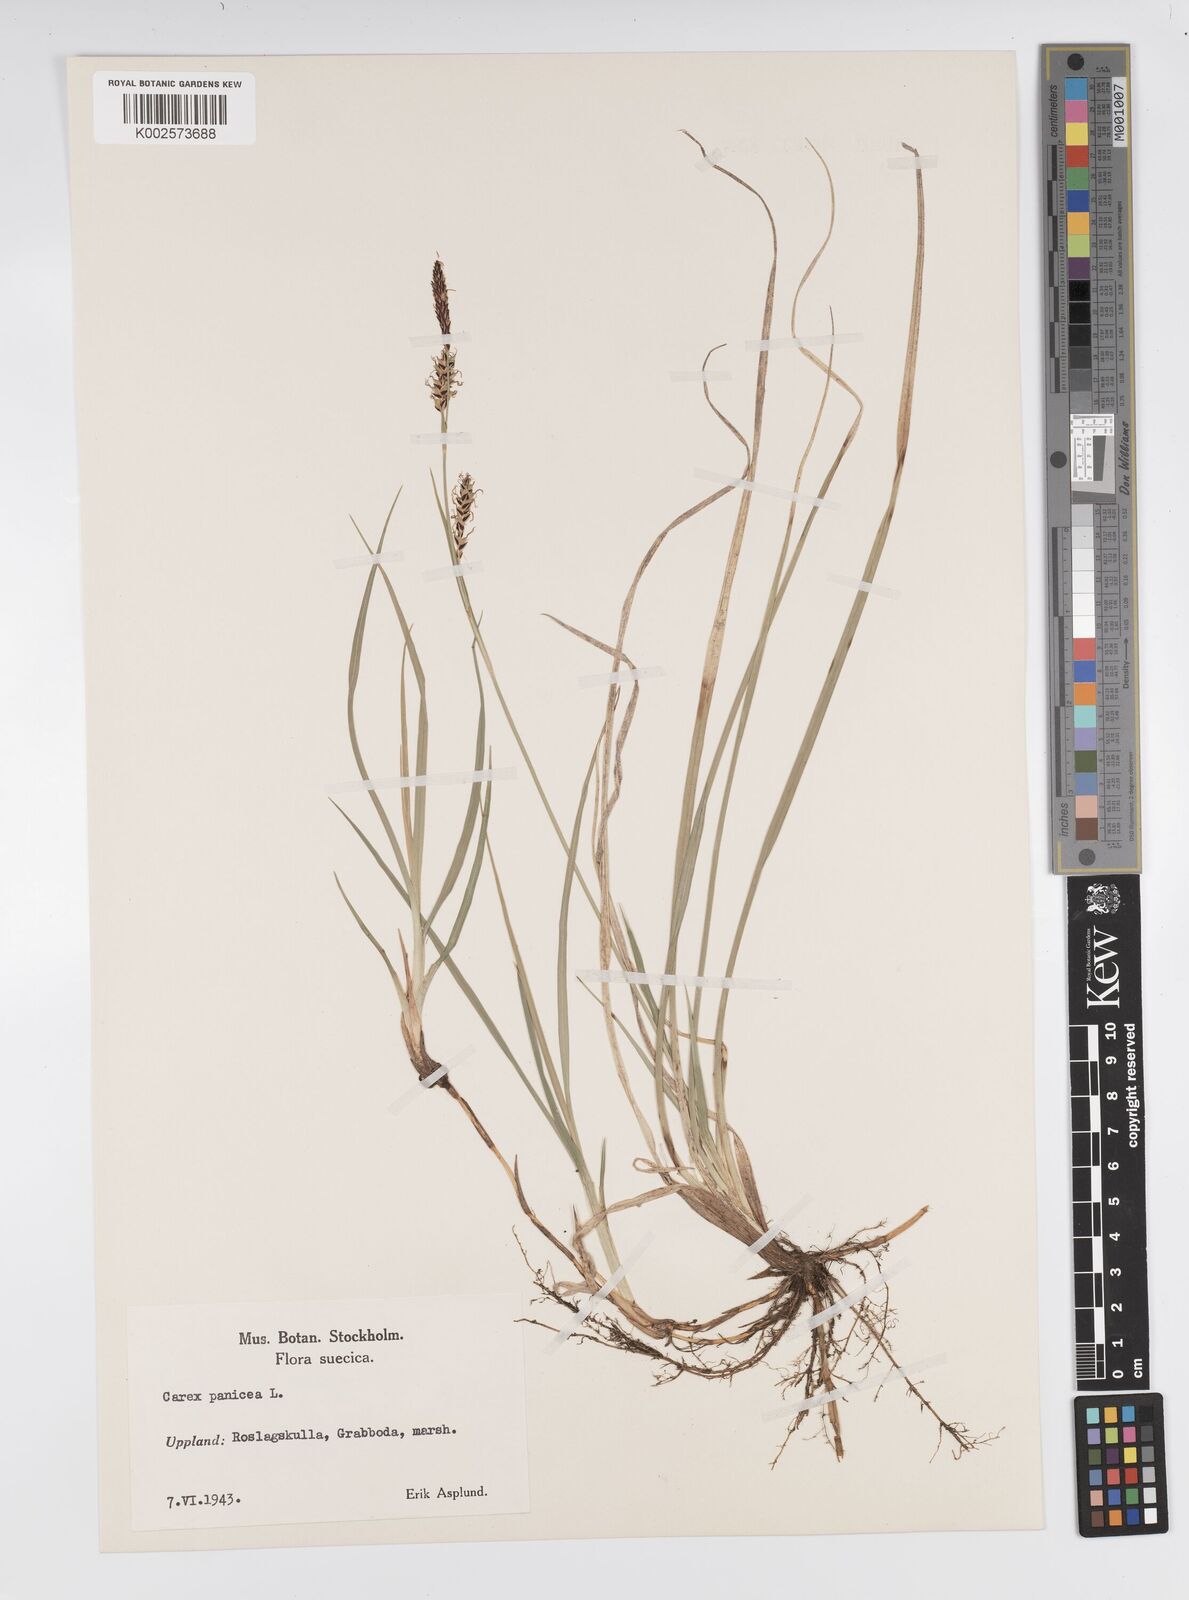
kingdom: Plantae
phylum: Tracheophyta
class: Liliopsida
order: Poales
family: Cyperaceae
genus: Carex
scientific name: Carex panicea
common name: Carnation sedge
